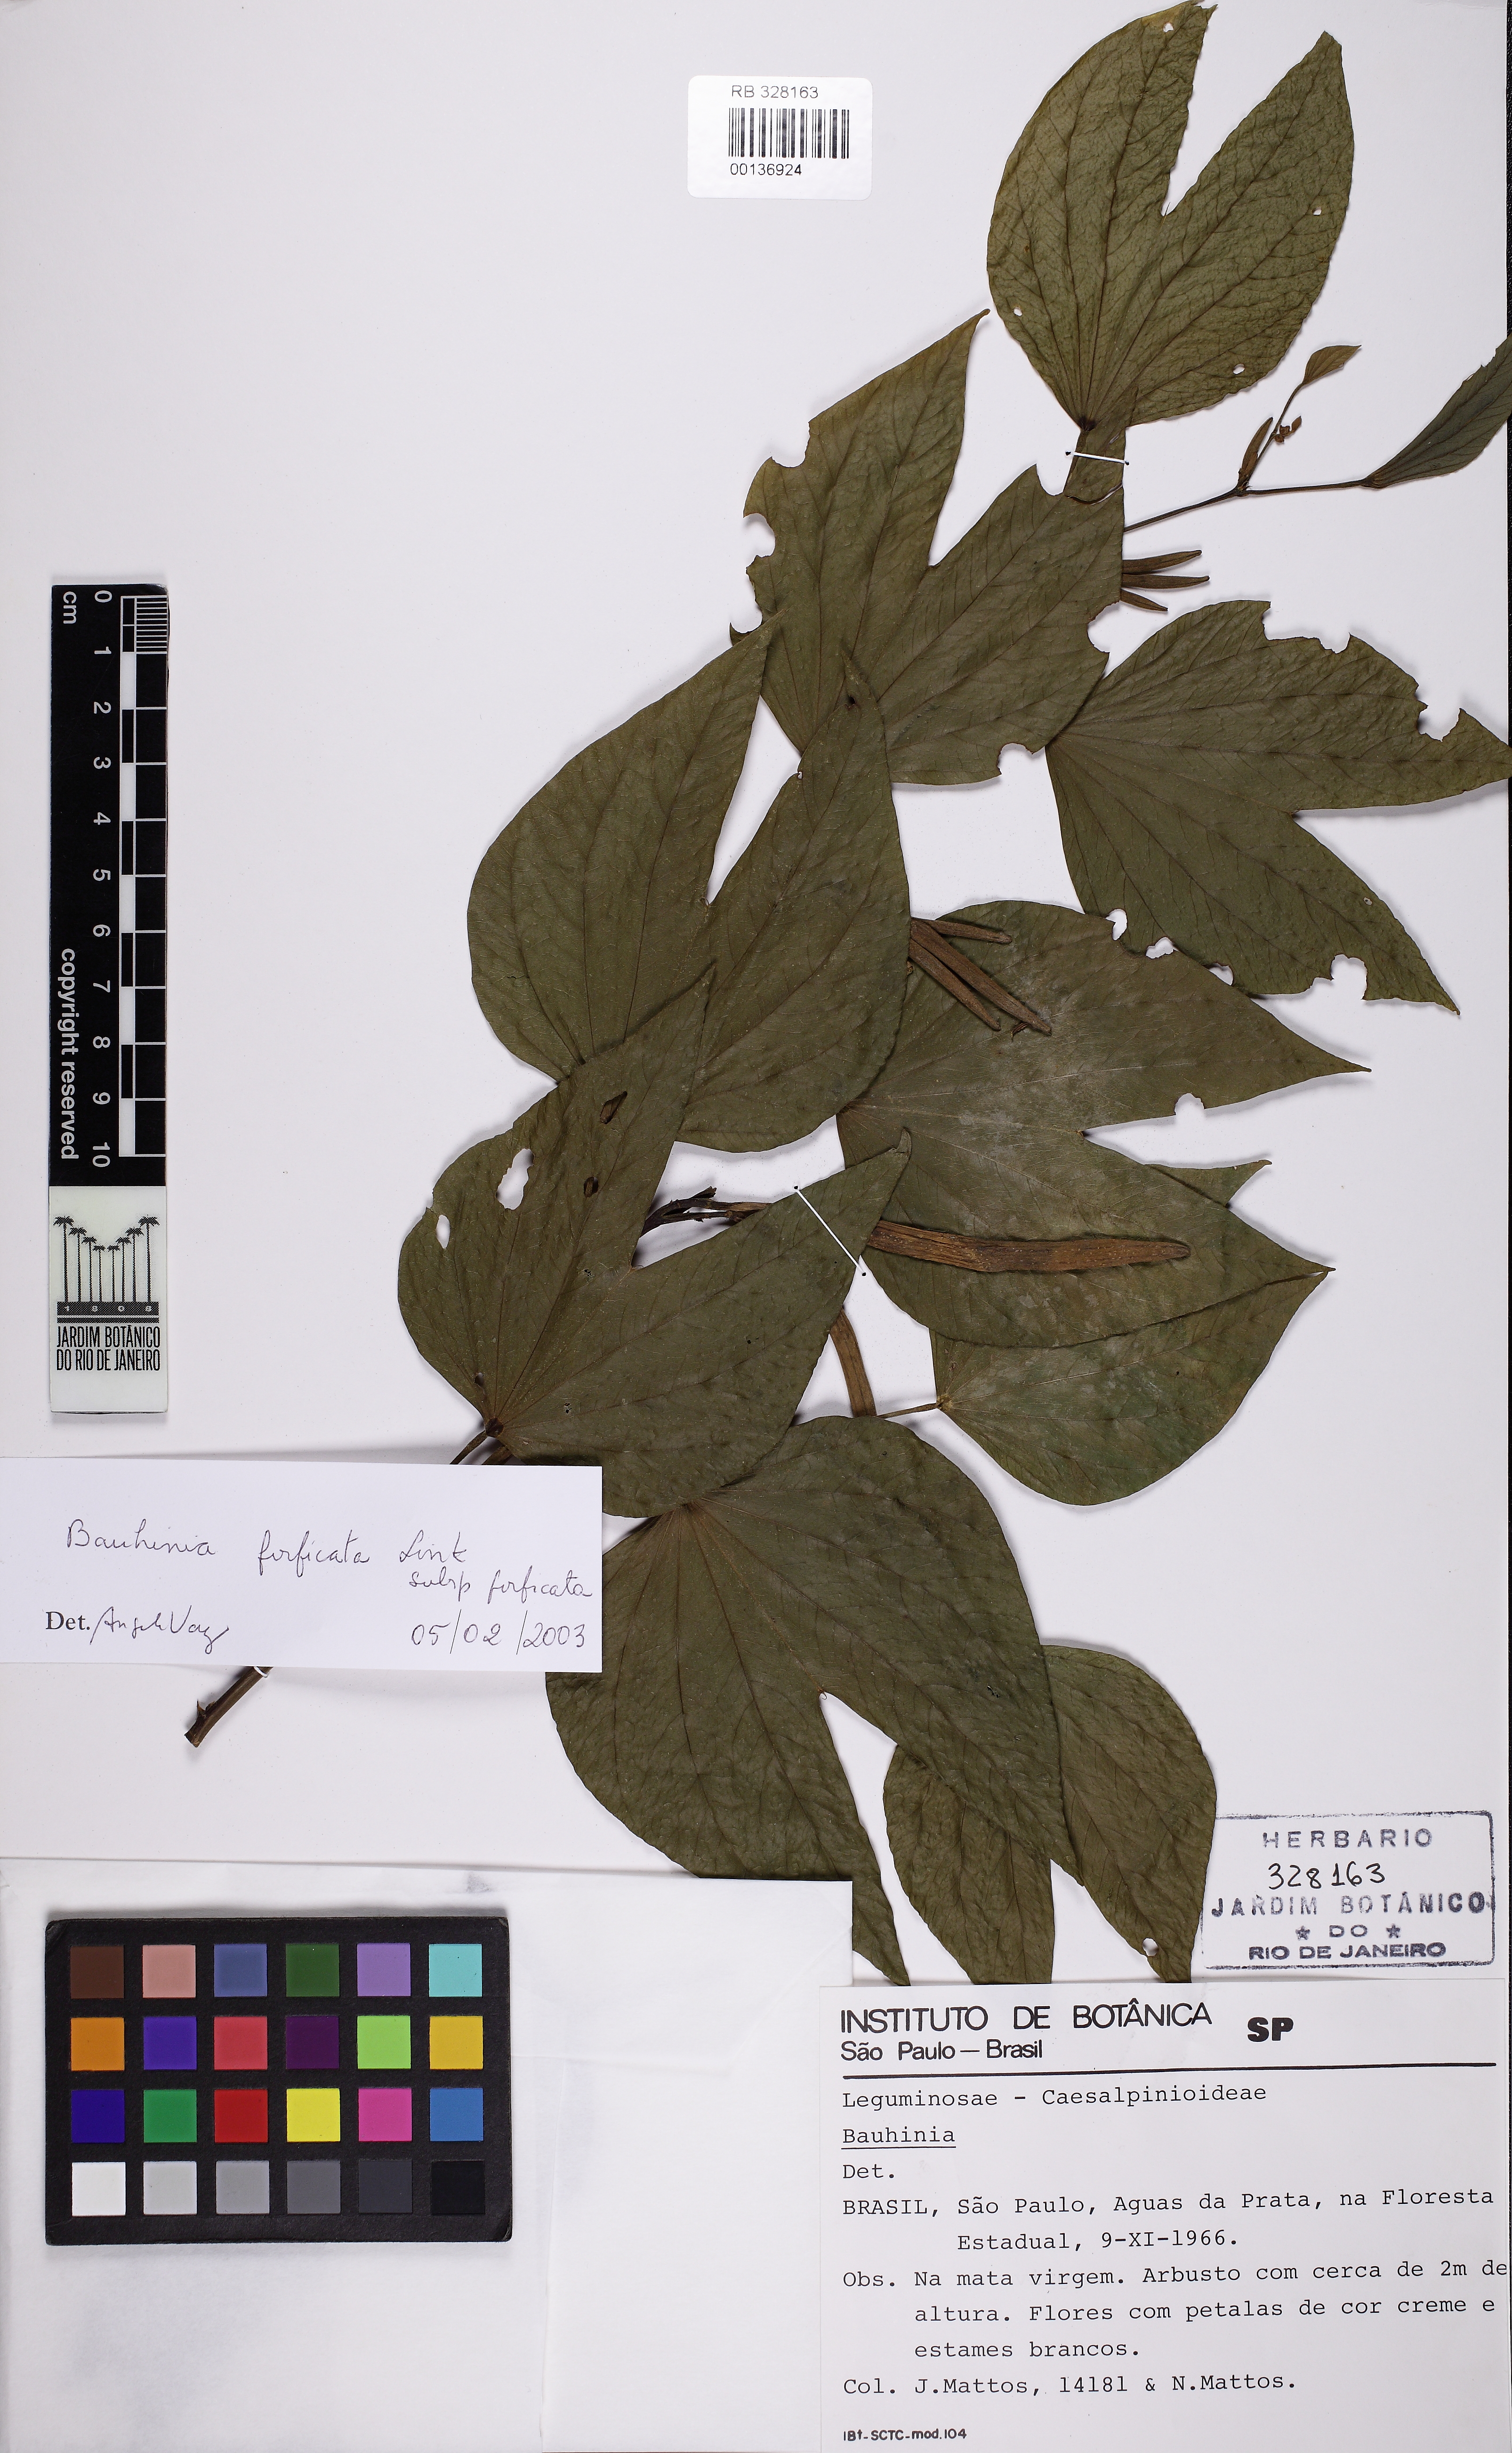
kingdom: Plantae
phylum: Tracheophyta
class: Magnoliopsida
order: Fabales
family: Fabaceae
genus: Bauhinia
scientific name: Bauhinia forficata
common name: Orchid tree
